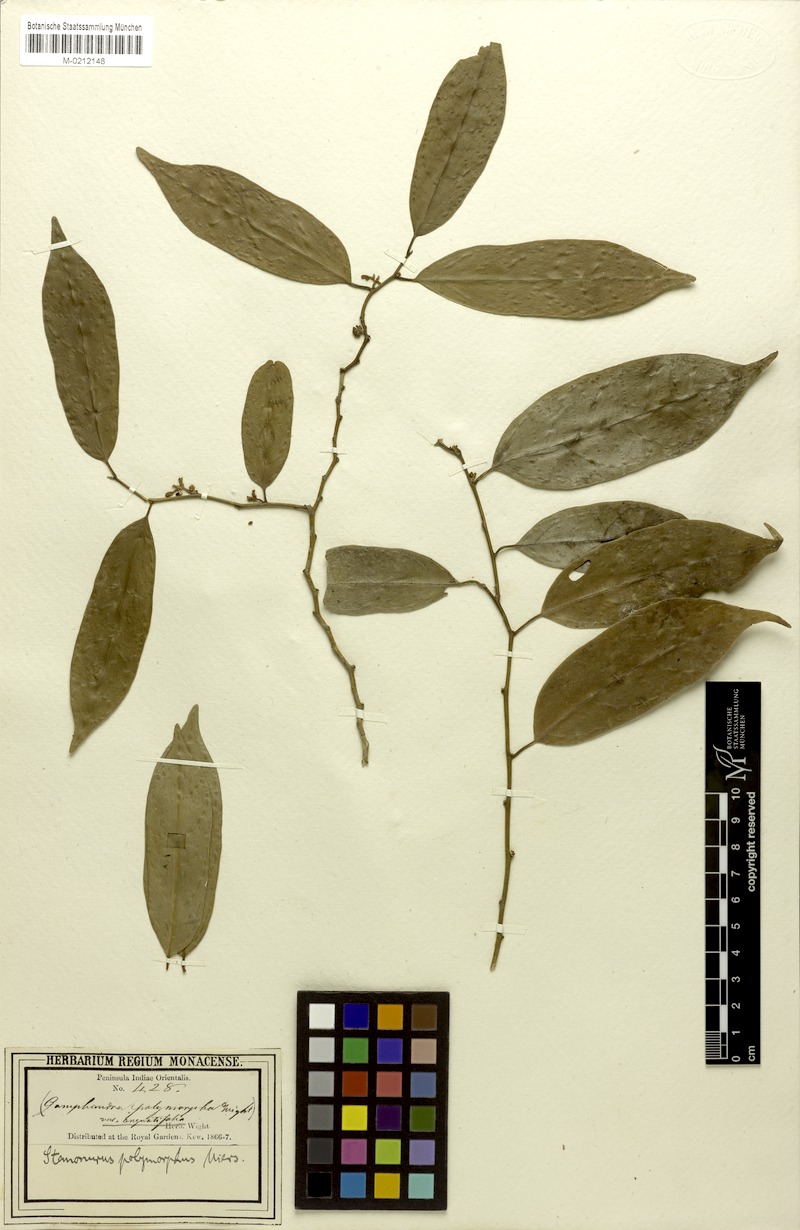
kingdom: Plantae
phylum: Tracheophyta
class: Magnoliopsida
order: Cardiopteridales
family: Stemonuraceae
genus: Gomphandra
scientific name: Gomphandra tetrandra
